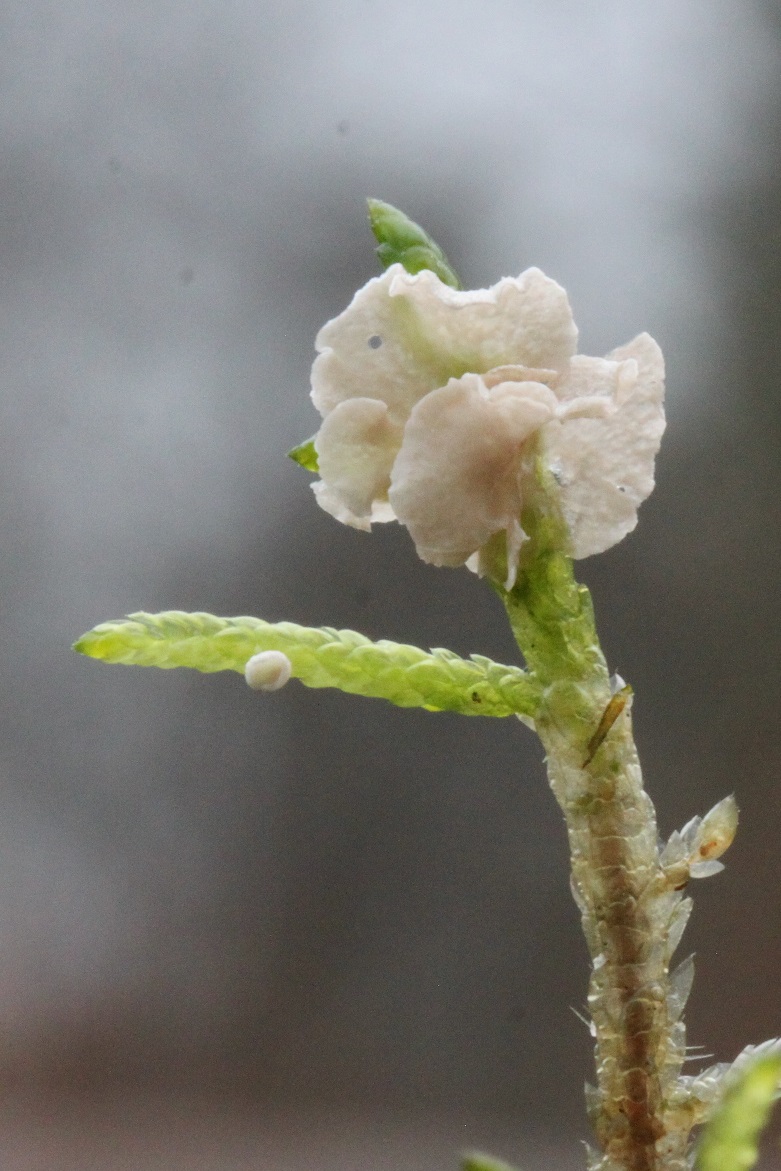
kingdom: Fungi
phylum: Basidiomycota
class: Agaricomycetes
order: Agaricales
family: Hygrophoraceae
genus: Arrhenia
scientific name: Arrhenia retiruga
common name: lille fontænehat
